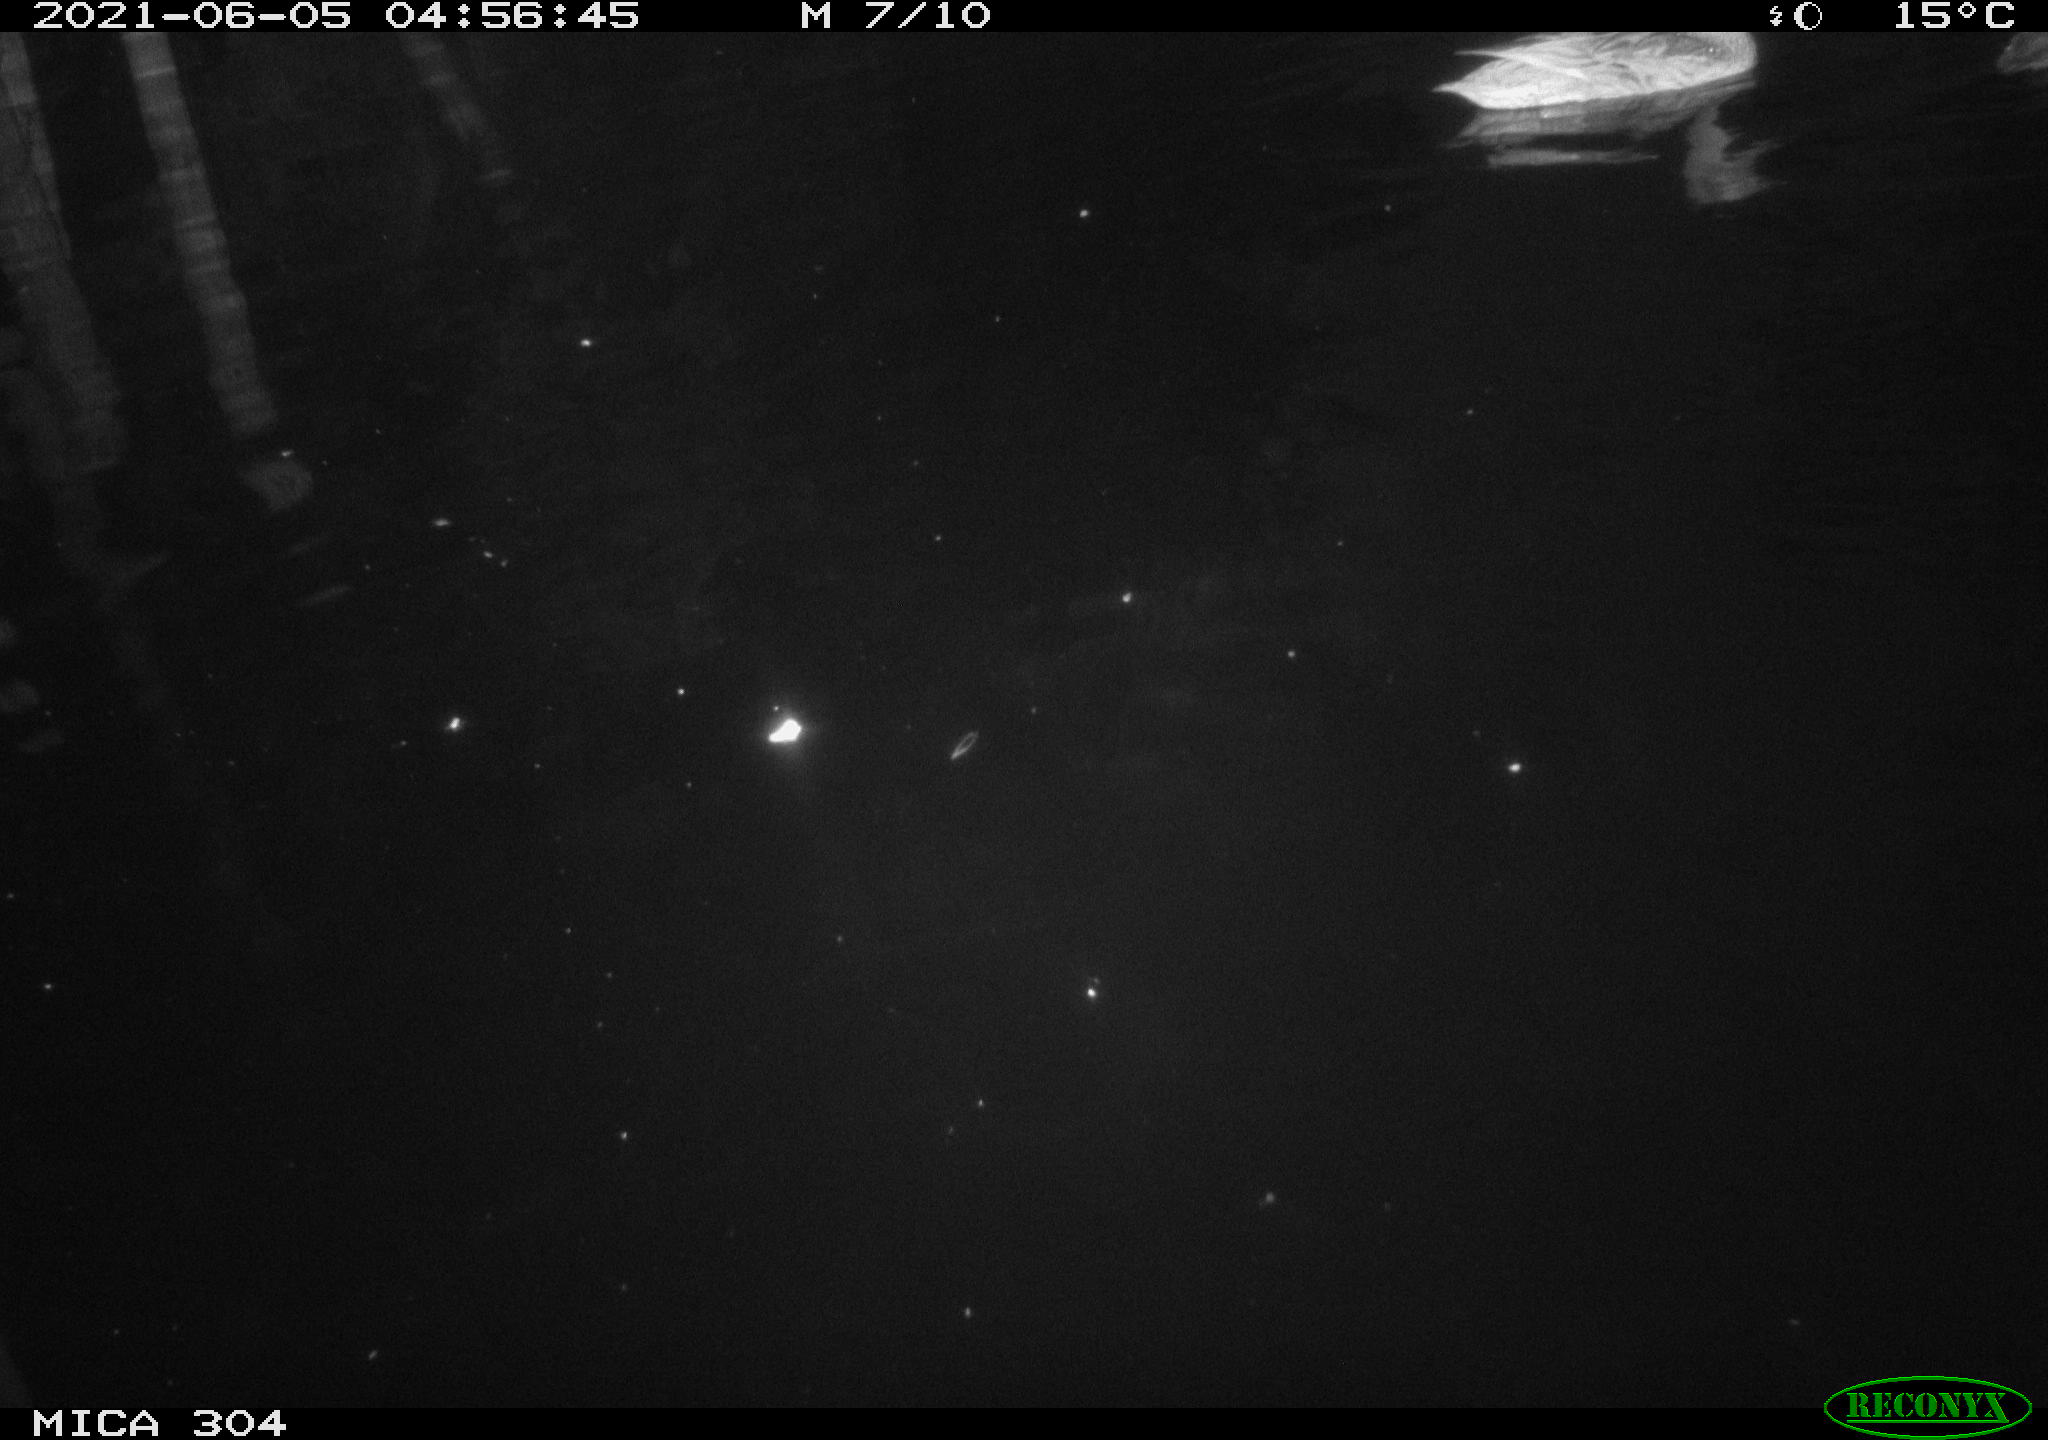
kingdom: Animalia
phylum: Chordata
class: Aves
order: Anseriformes
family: Anatidae
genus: Anas
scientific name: Anas platyrhynchos
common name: Mallard
